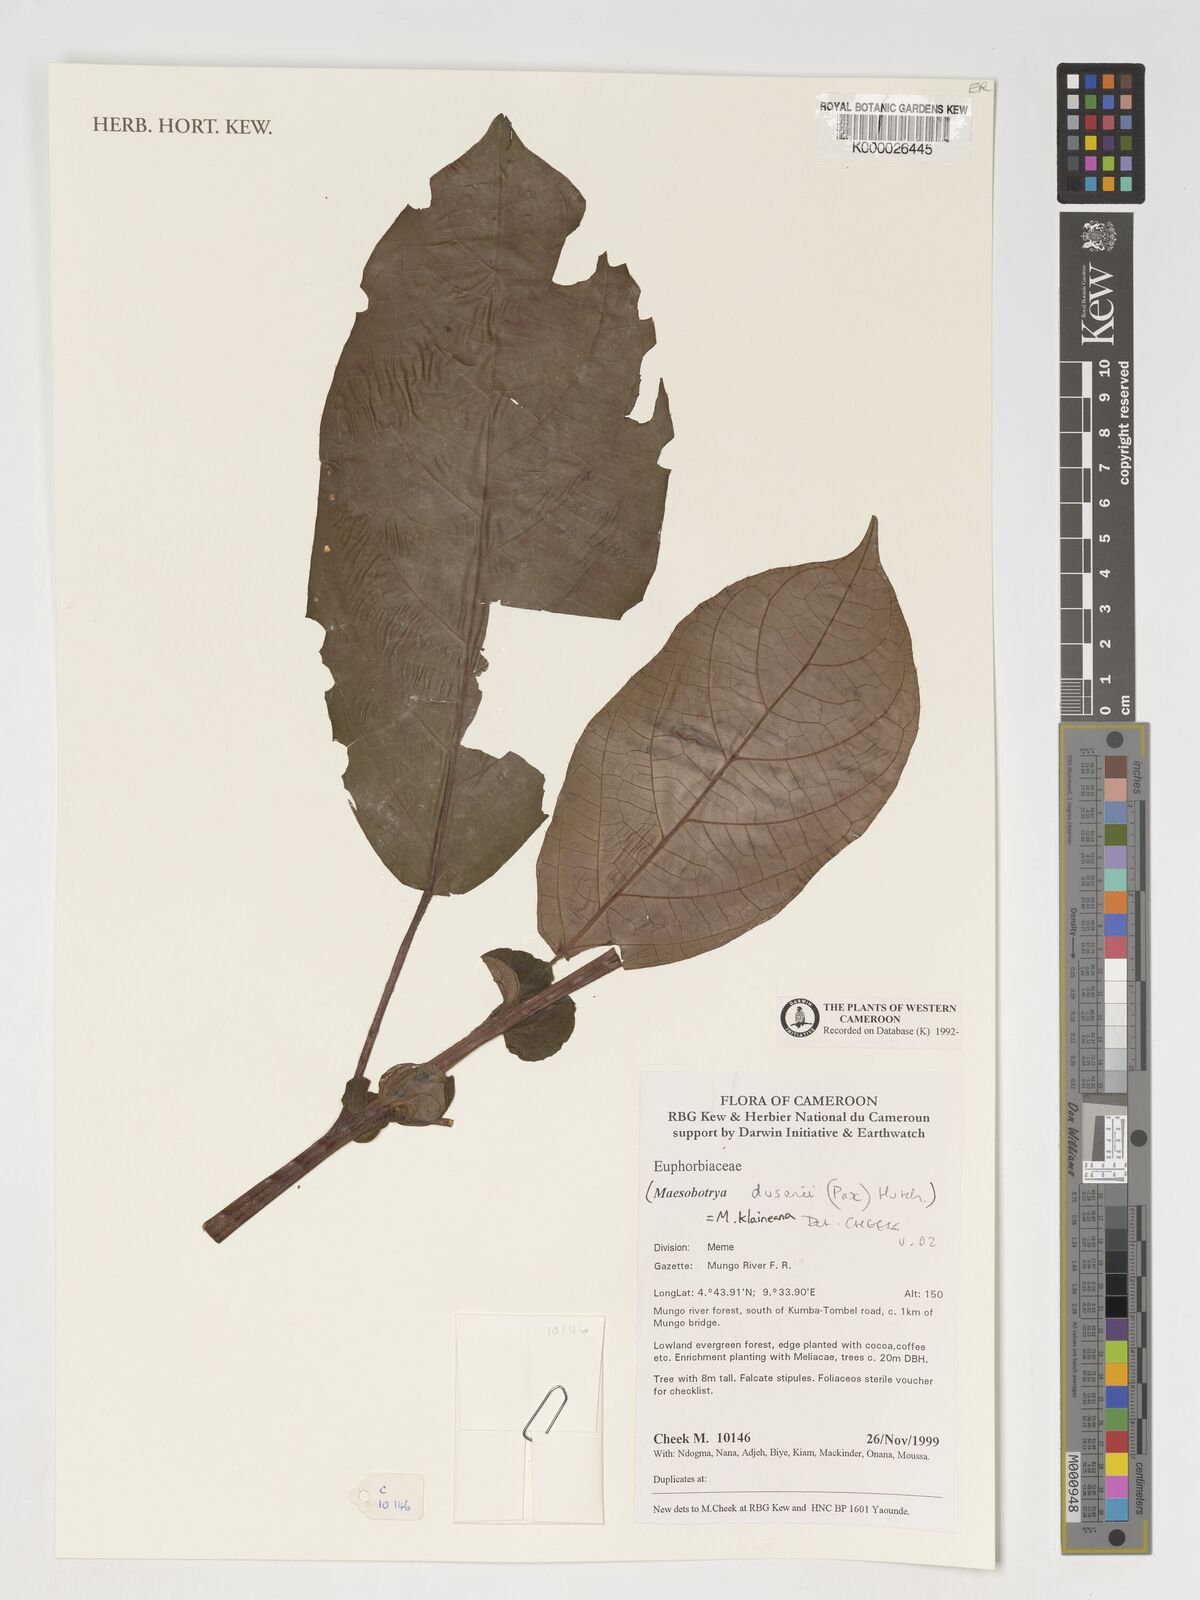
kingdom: Plantae
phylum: Tracheophyta
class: Magnoliopsida
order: Malpighiales
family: Phyllanthaceae
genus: Maesobotrya
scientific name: Maesobotrya
